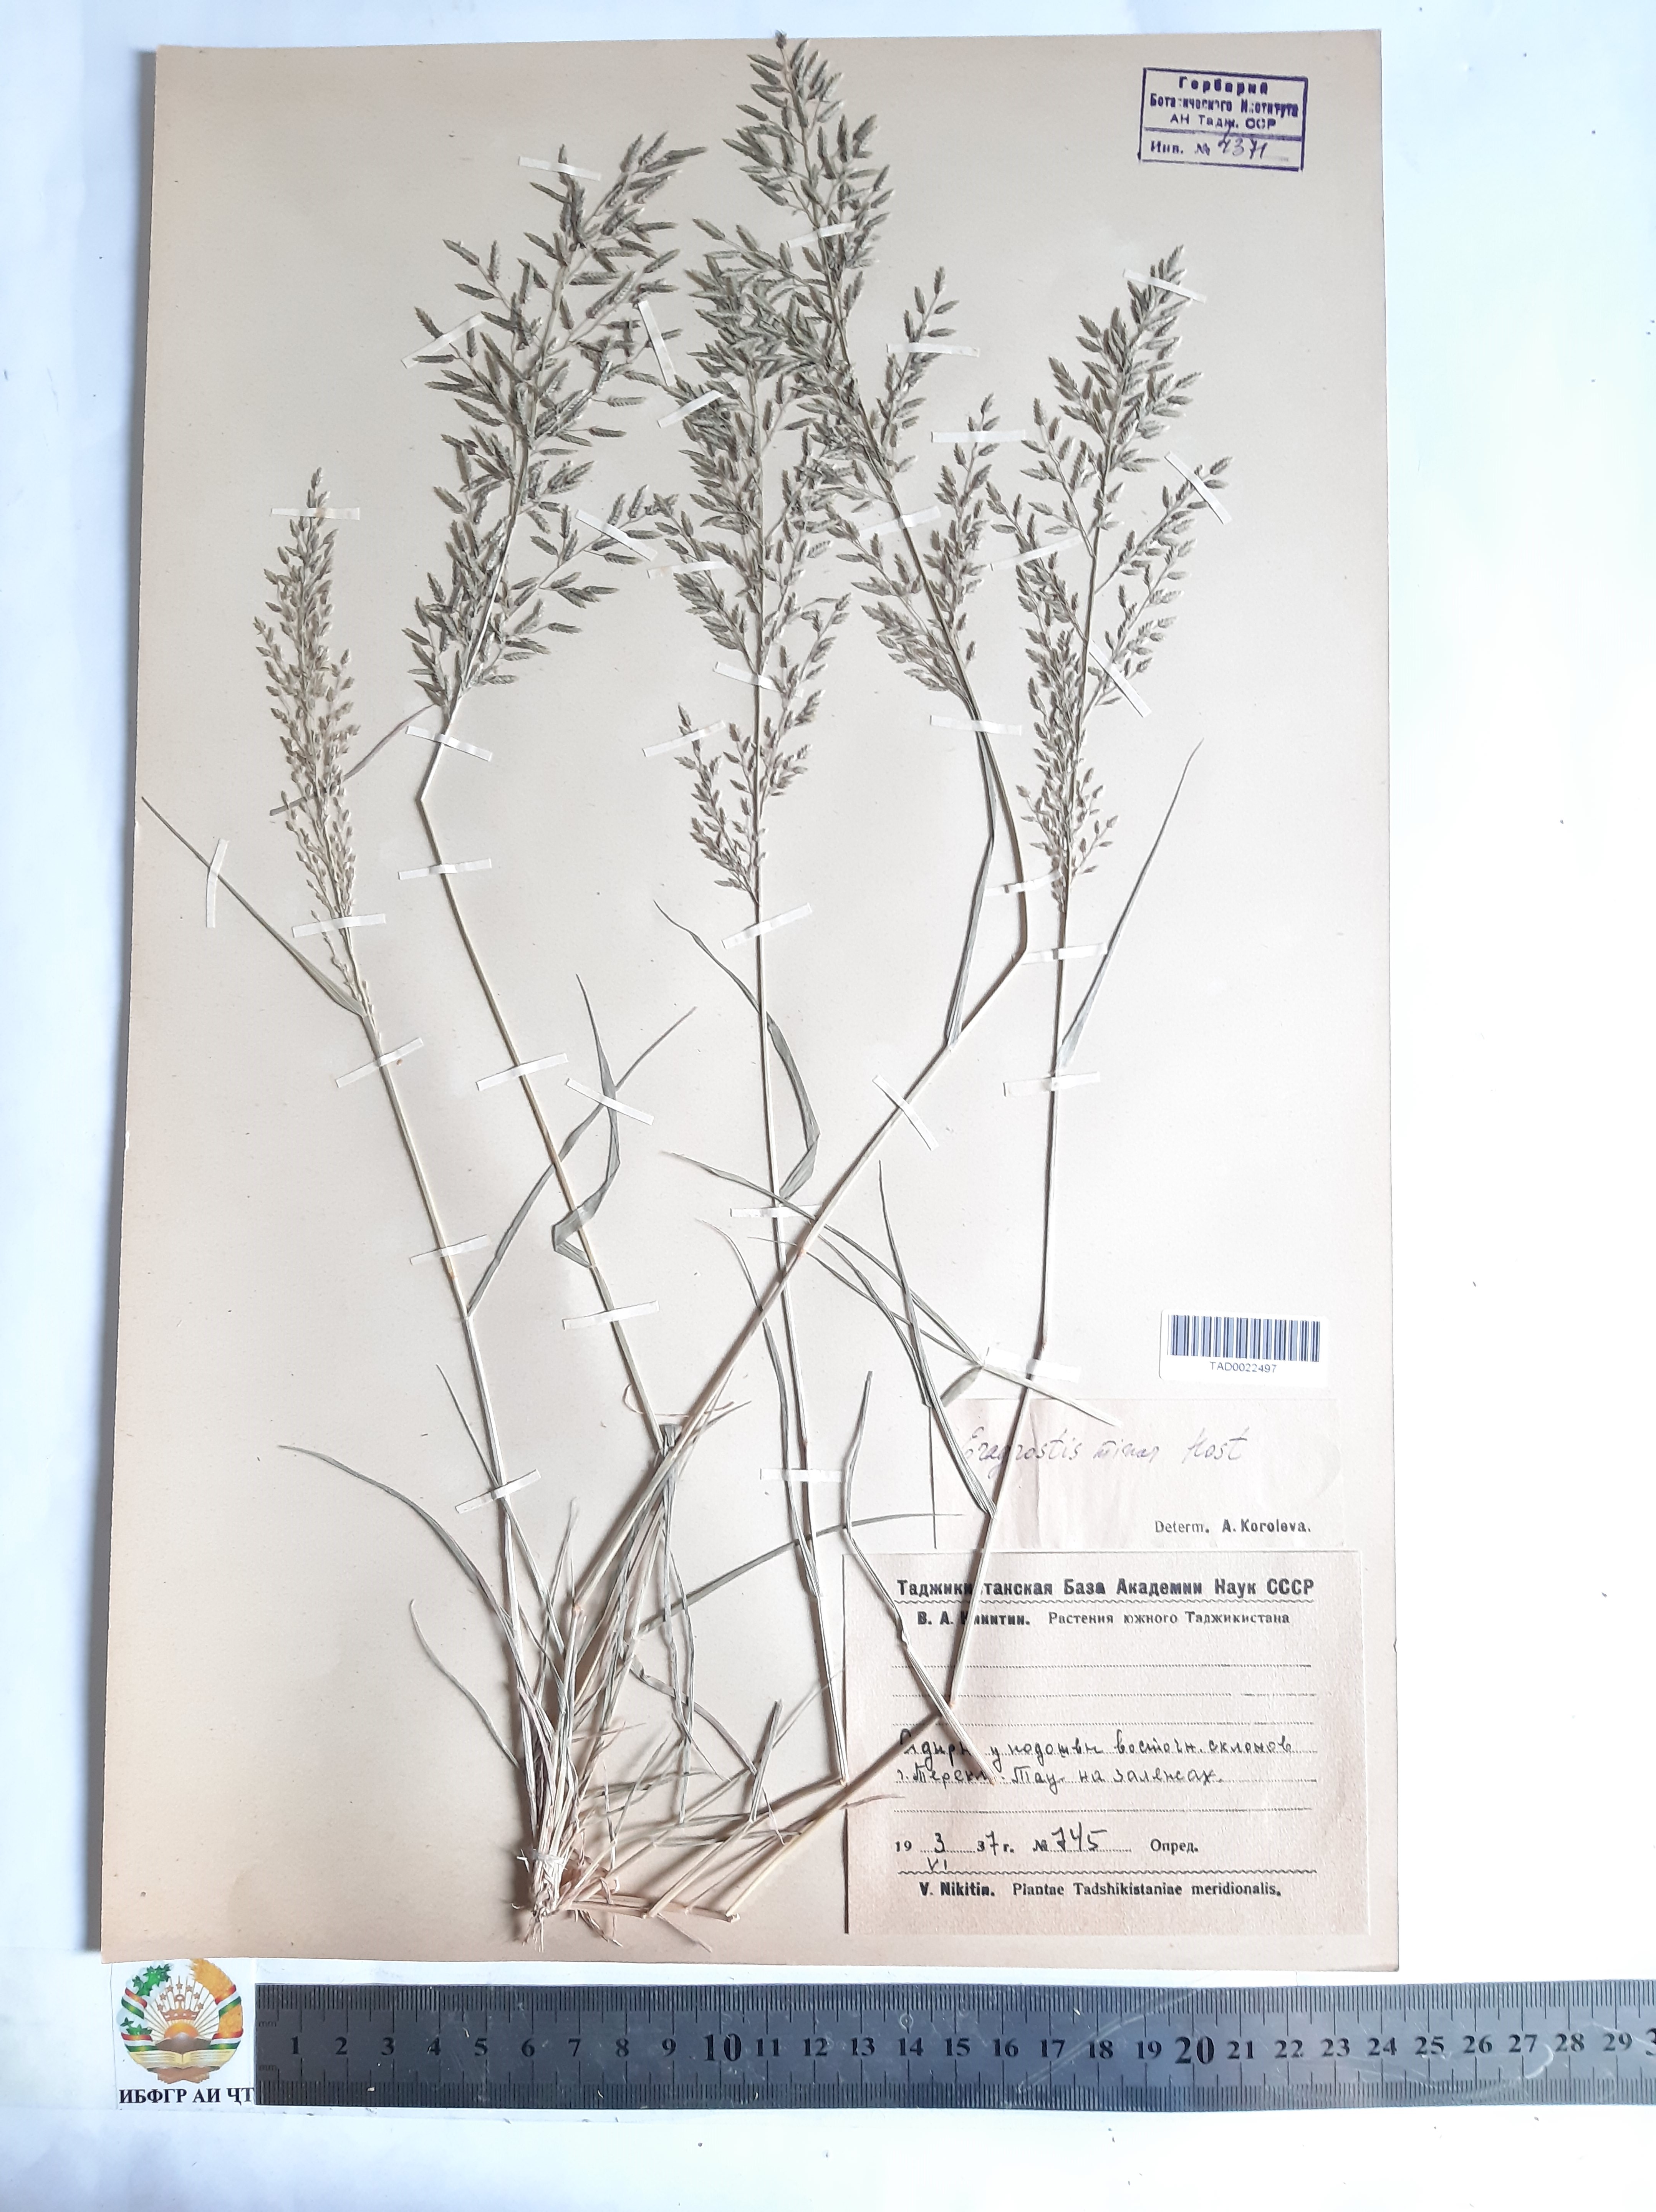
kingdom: Plantae
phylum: Tracheophyta
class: Liliopsida
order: Poales
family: Poaceae
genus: Eragrostis
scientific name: Eragrostis minor
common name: Small love-grass
